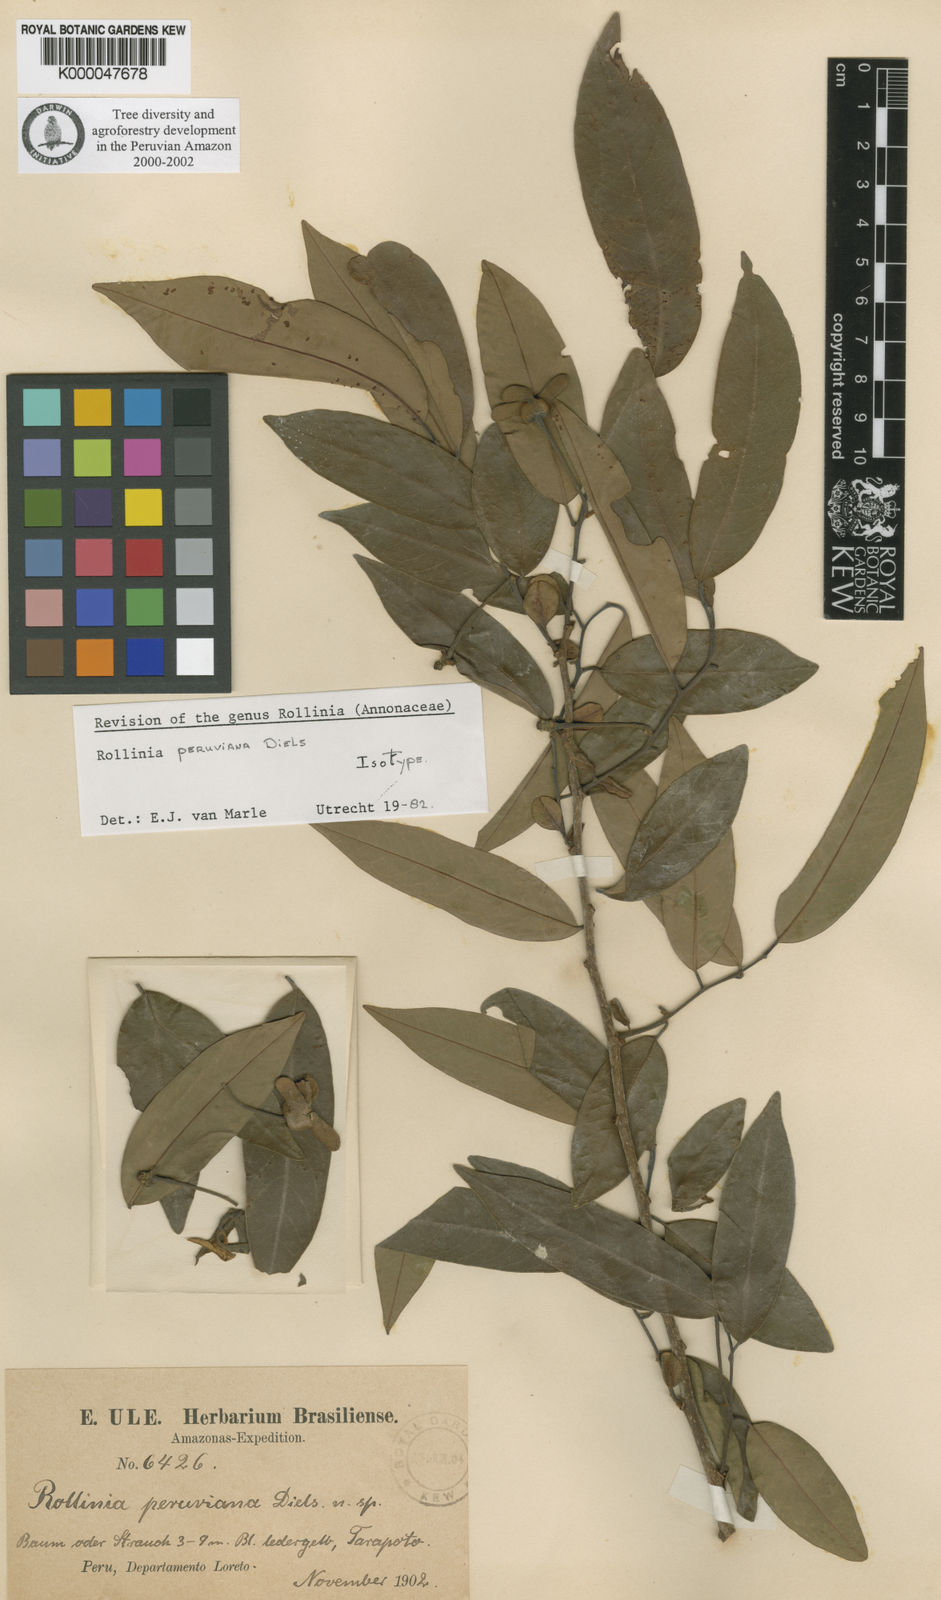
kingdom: Plantae
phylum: Tracheophyta
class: Magnoliopsida
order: Magnoliales
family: Annonaceae
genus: Annona
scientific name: Annona jucunda
